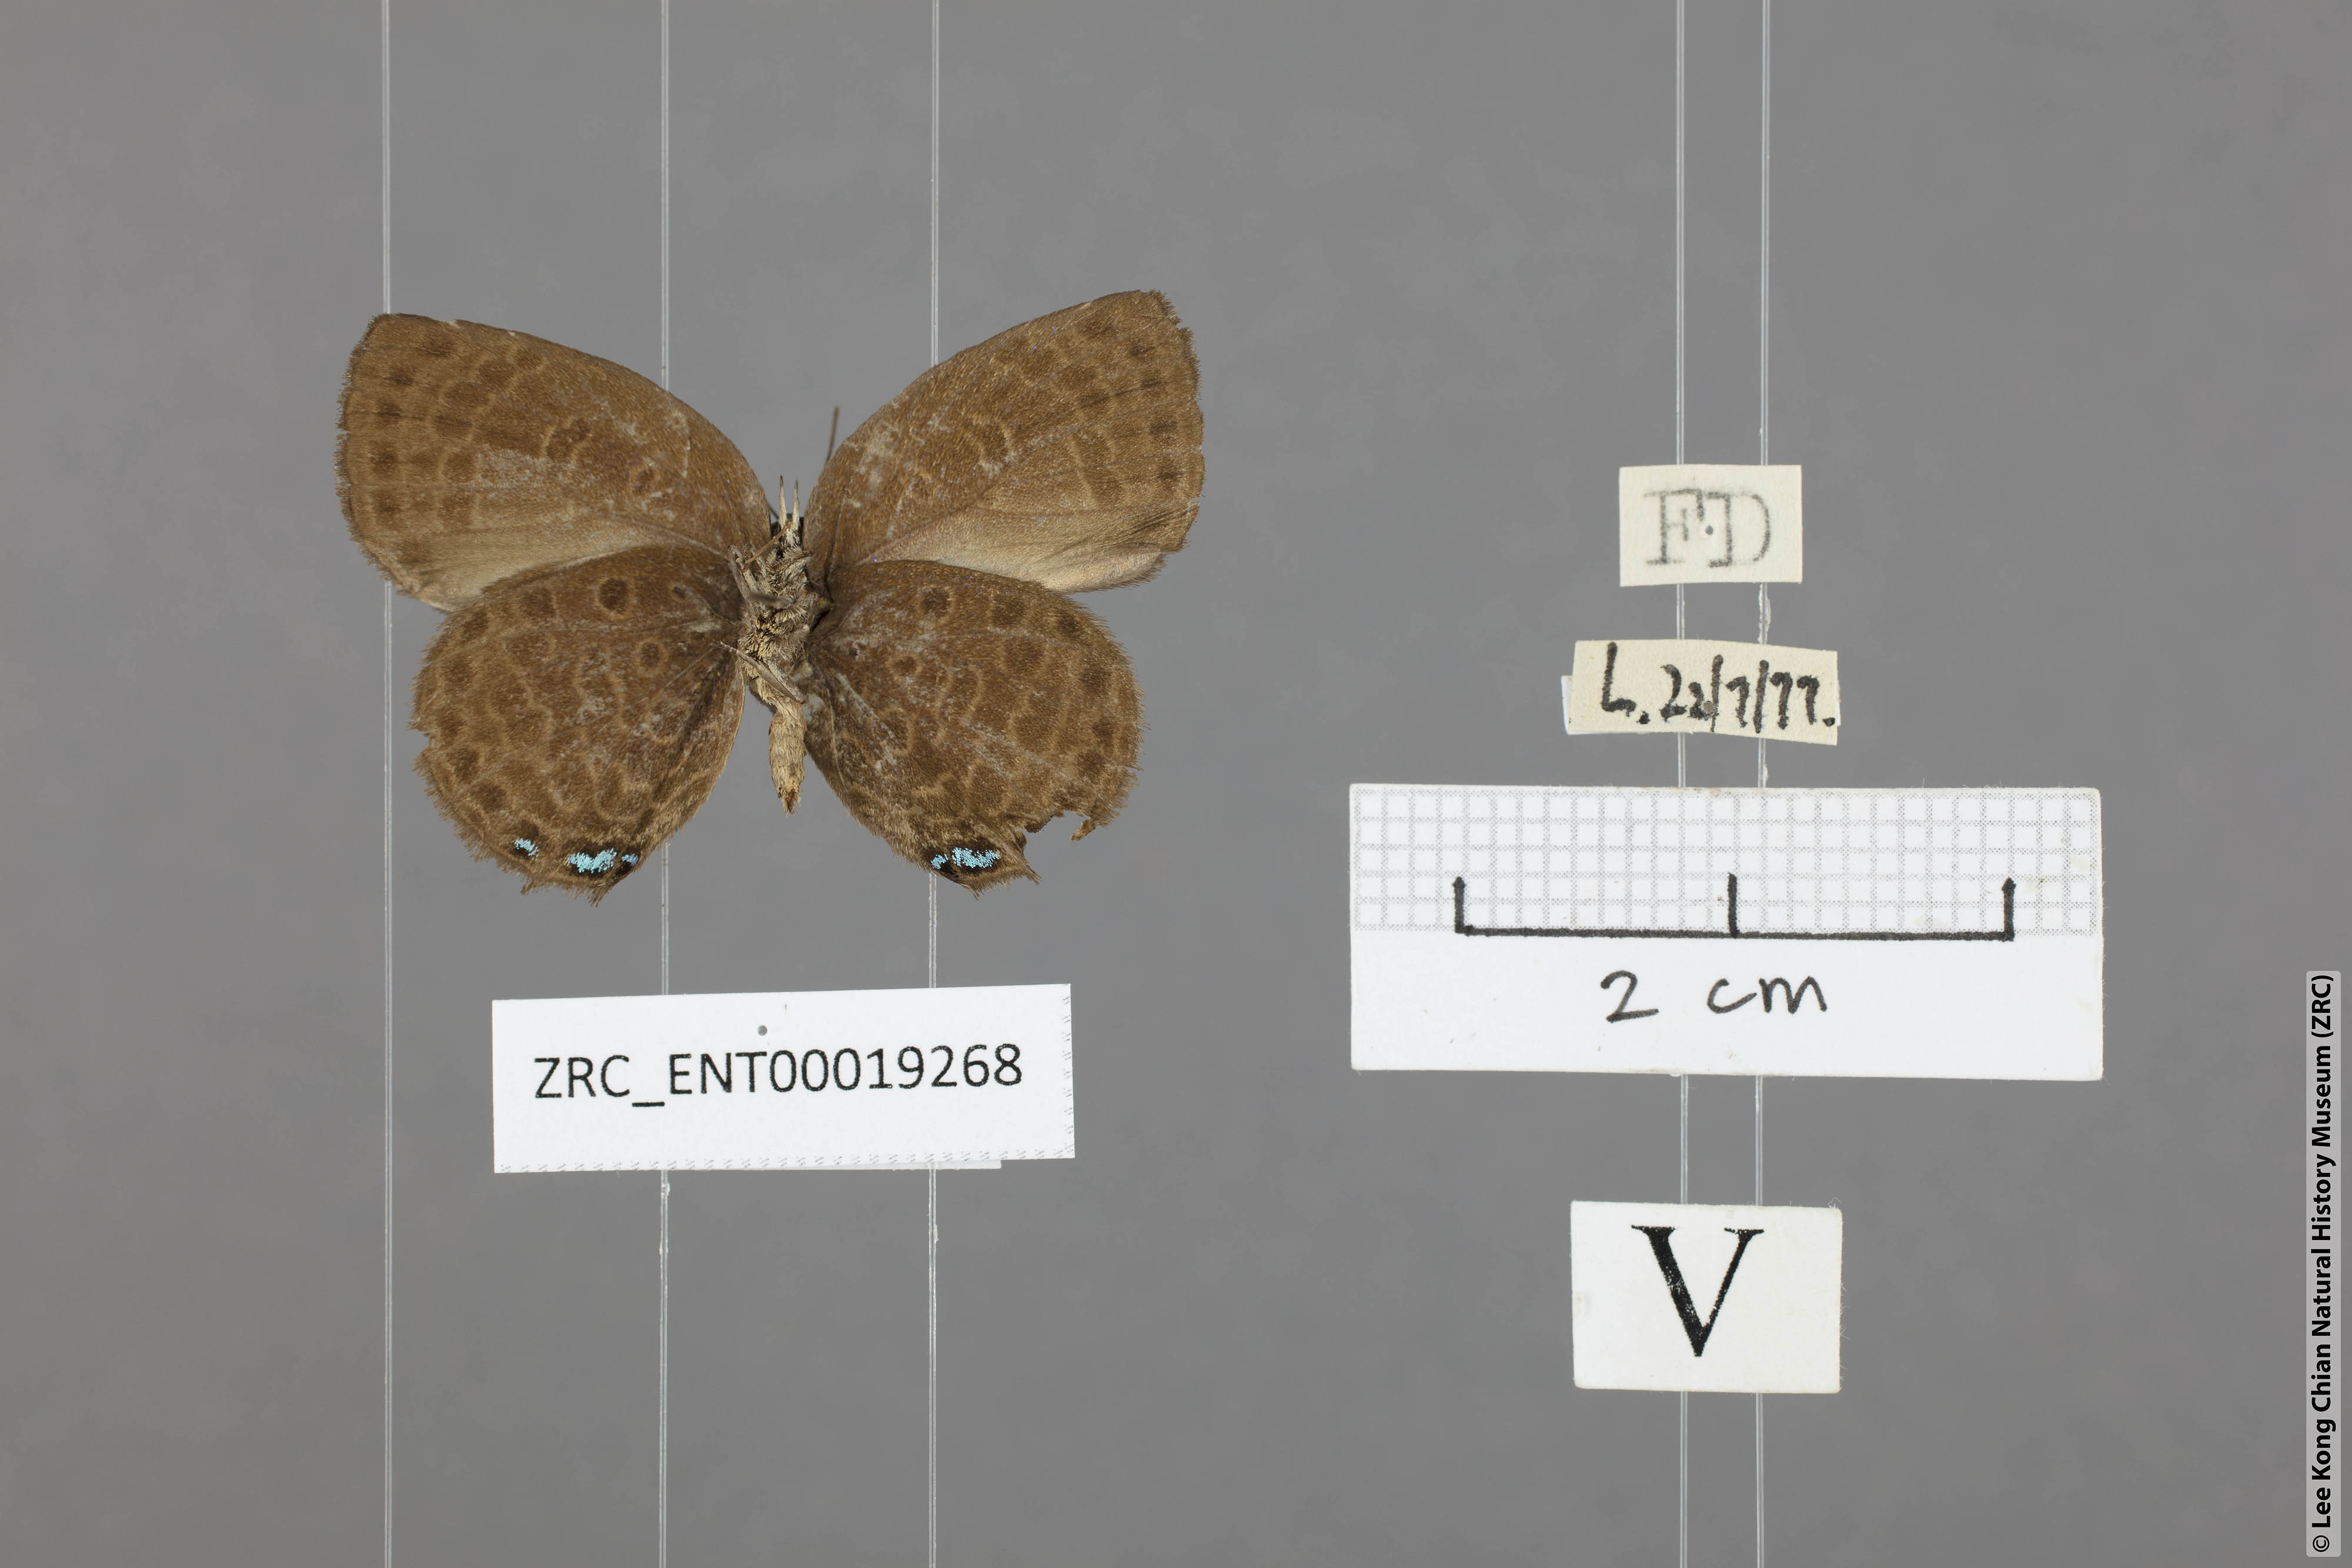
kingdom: Animalia
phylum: Arthropoda
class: Insecta
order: Lepidoptera
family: Lycaenidae
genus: Arhopala
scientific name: Arhopala avathina
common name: Lunulate yellow oakblue
